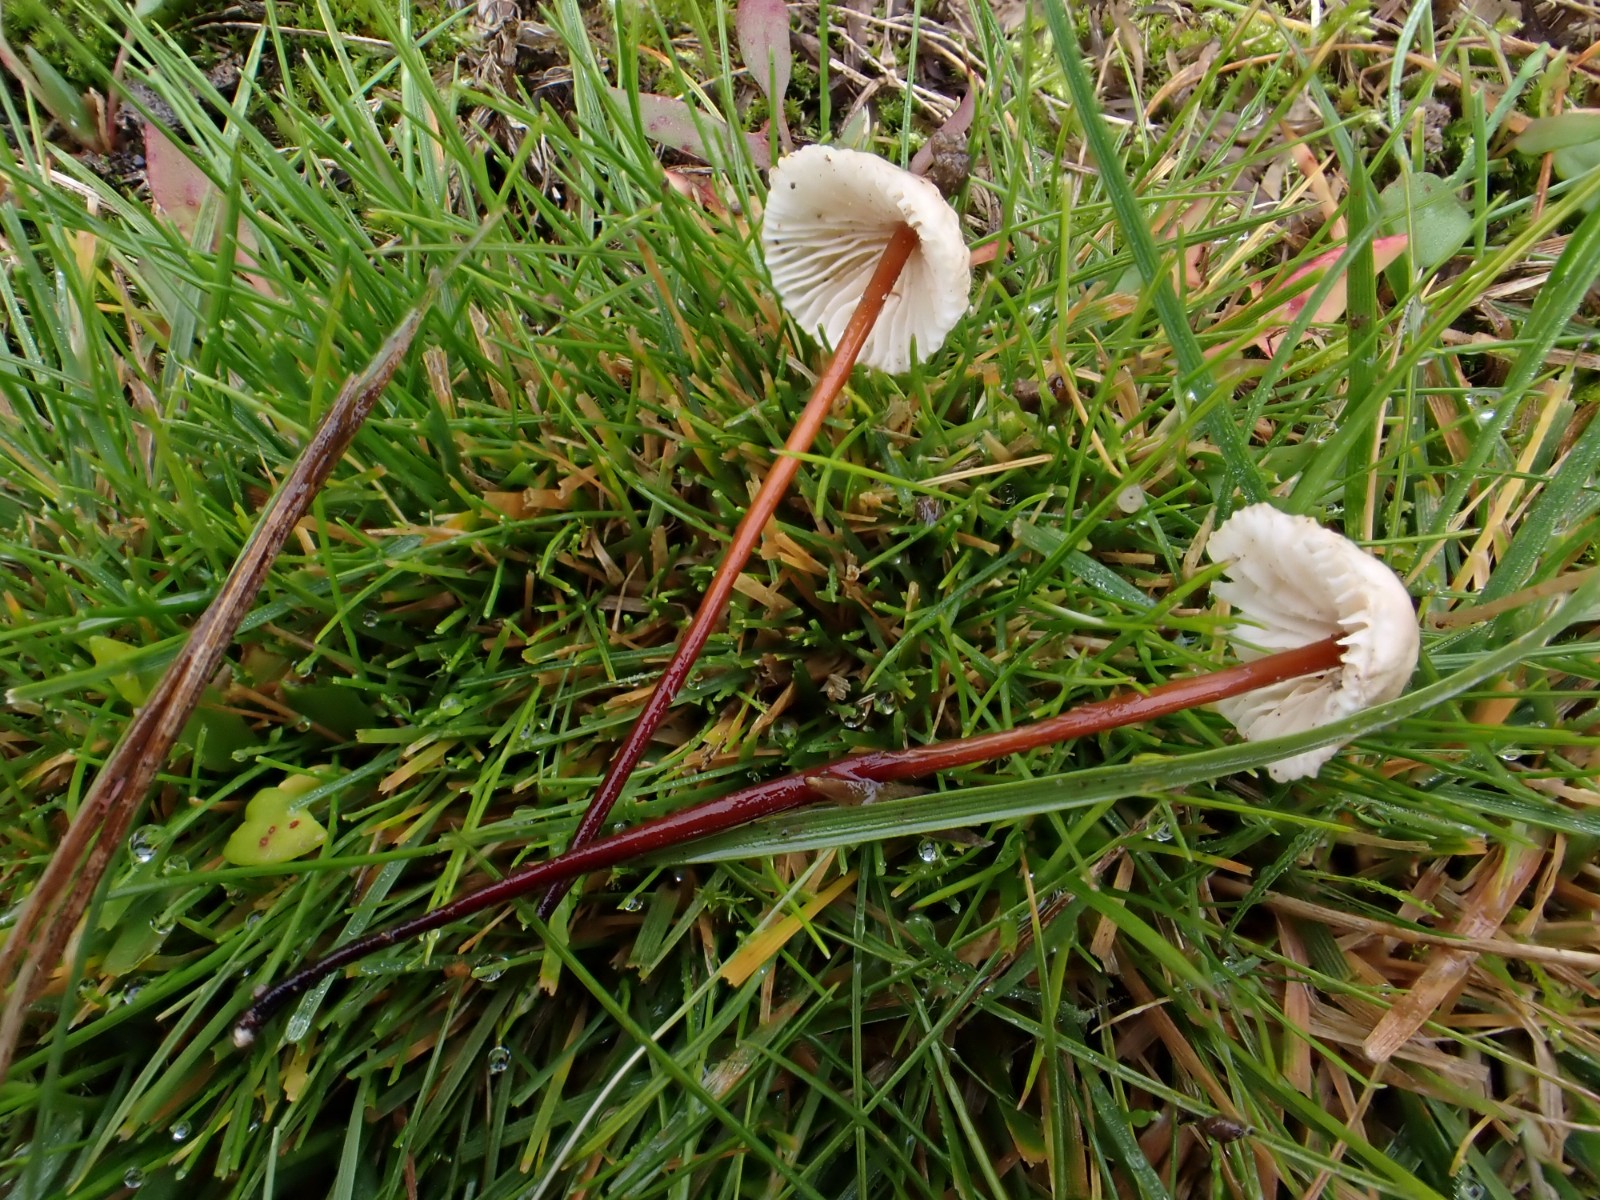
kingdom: Fungi
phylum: Basidiomycota
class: Agaricomycetes
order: Agaricales
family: Omphalotaceae
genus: Mycetinis
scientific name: Mycetinis scorodonius
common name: lille løghat
